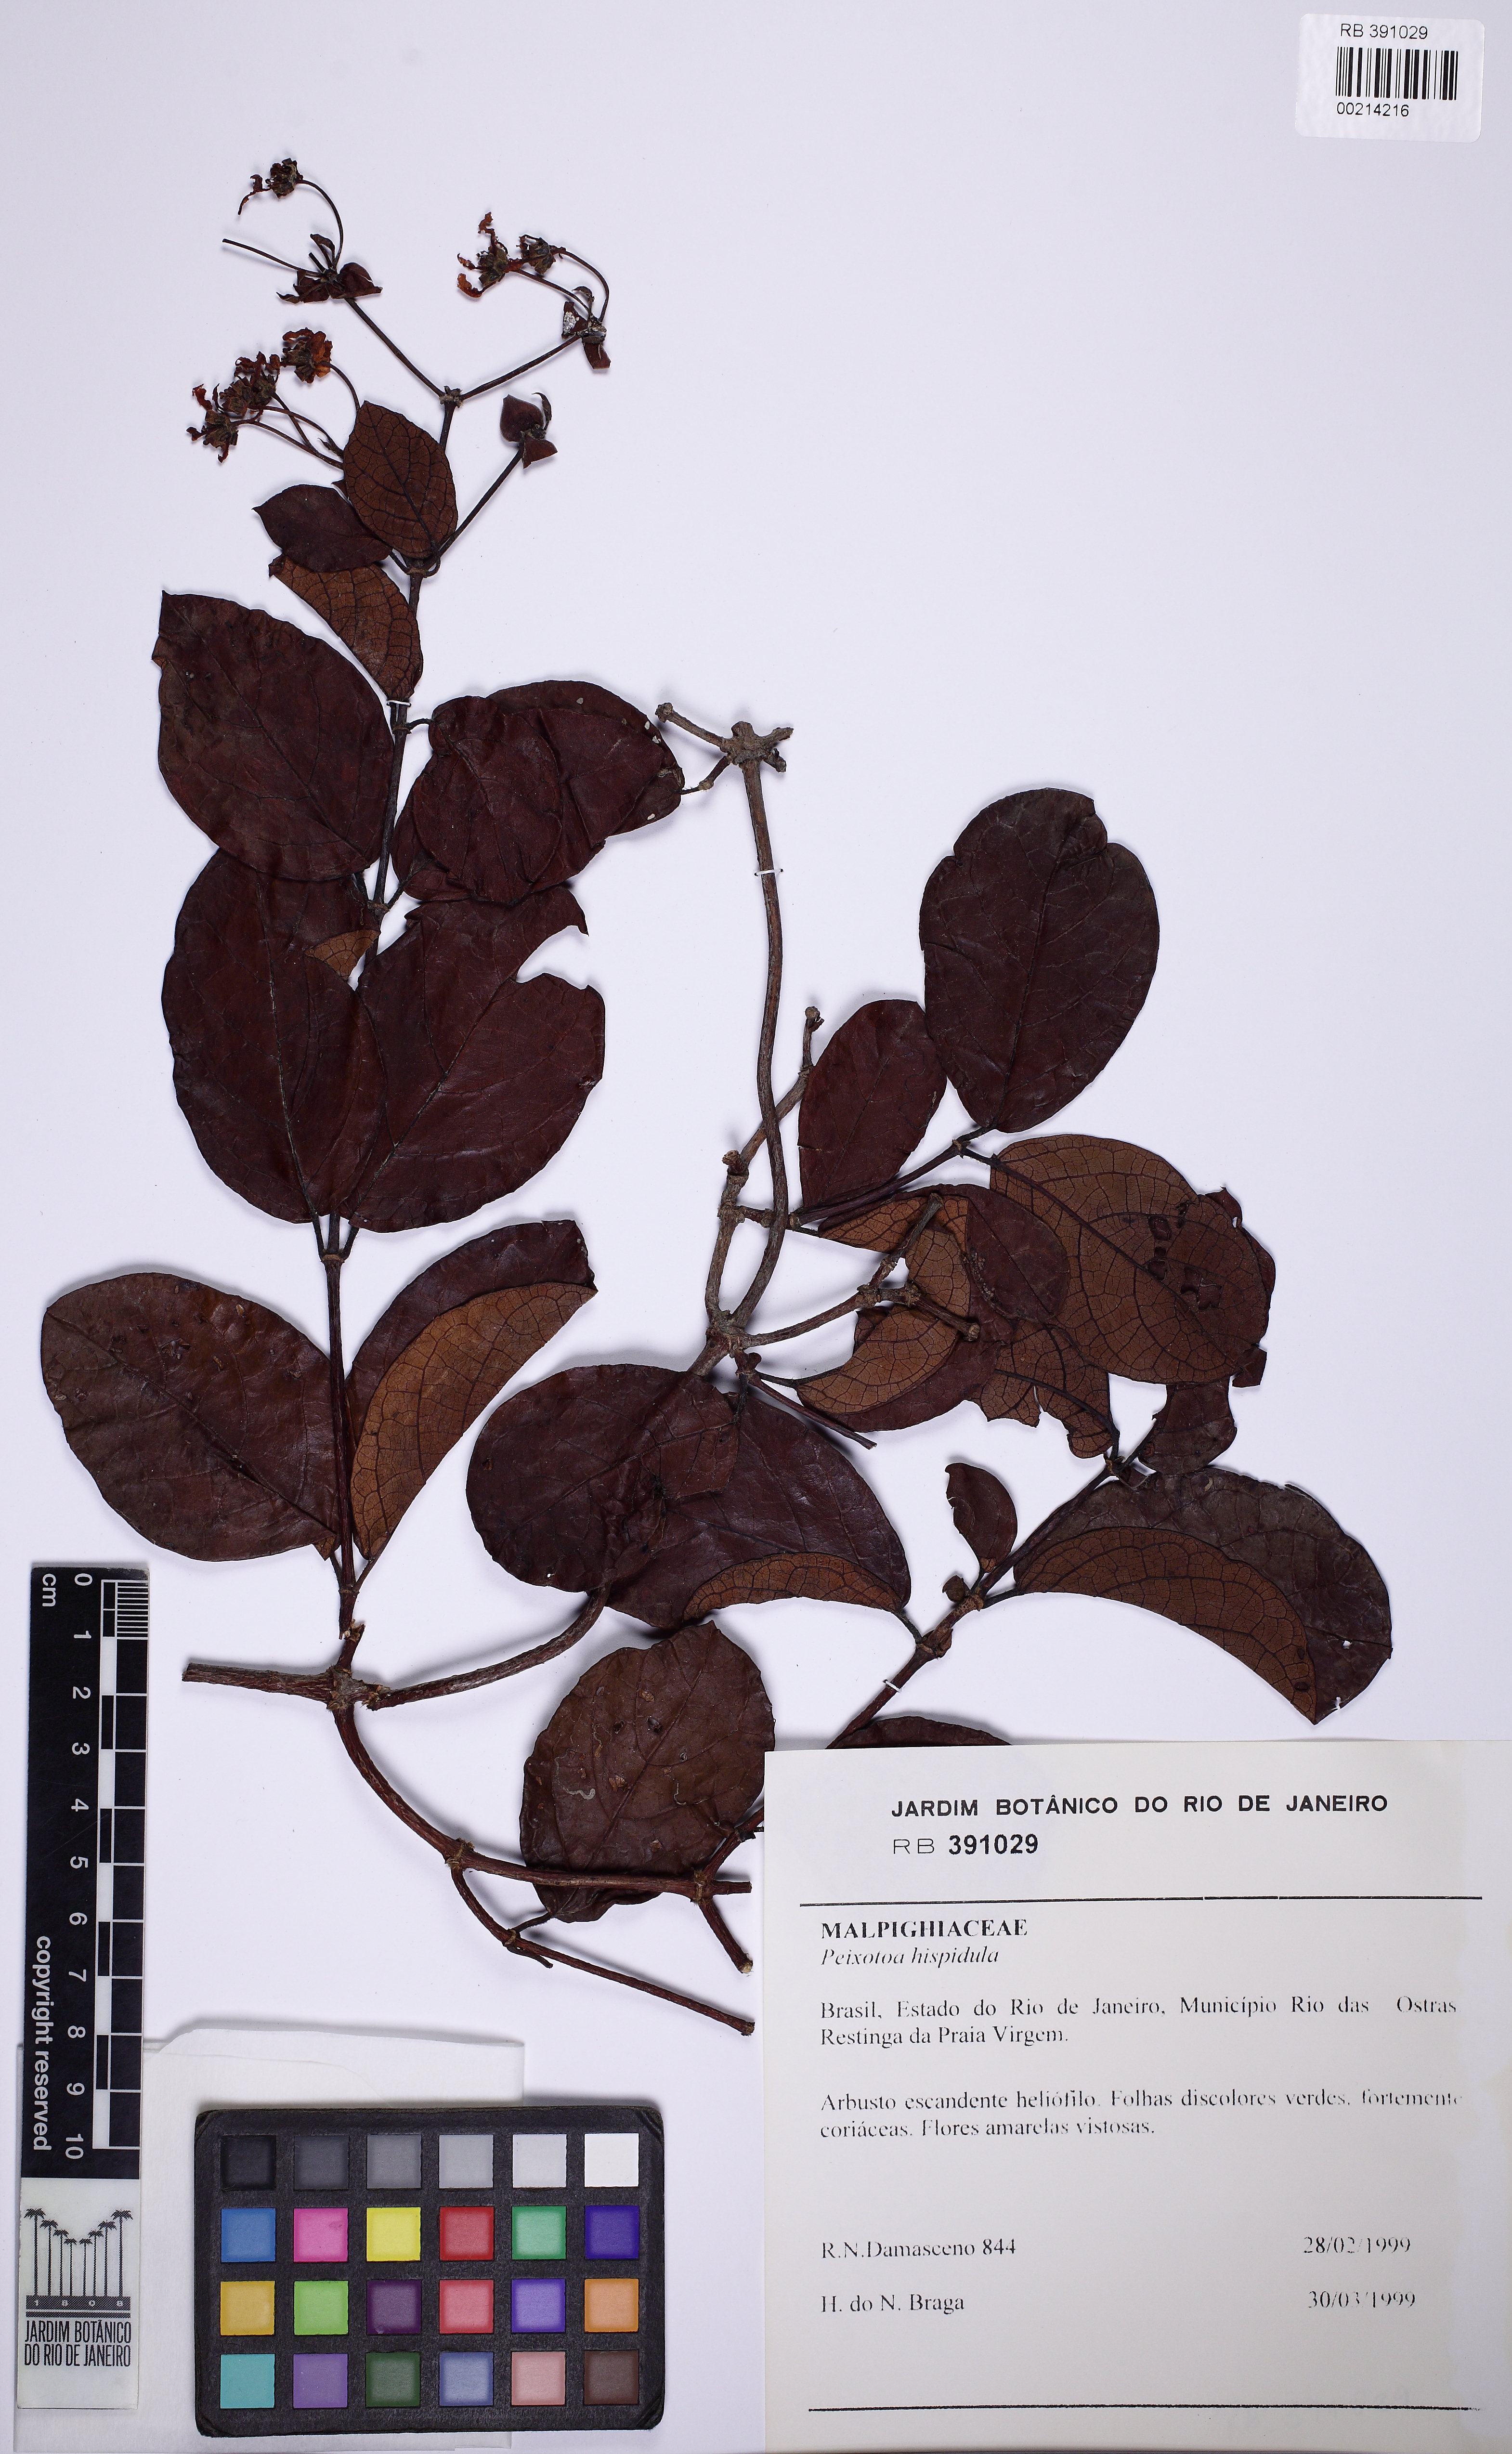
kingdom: Plantae
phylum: Tracheophyta
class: Magnoliopsida
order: Malpighiales
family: Malpighiaceae
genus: Peixotoa
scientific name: Peixotoa hispidula
